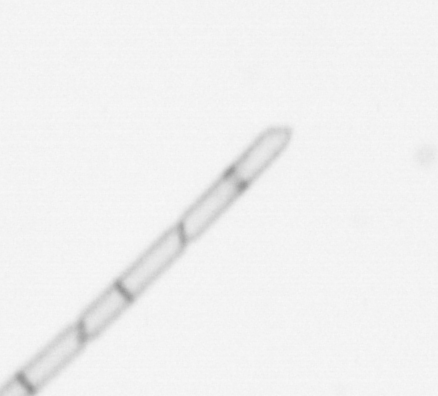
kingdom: Chromista
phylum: Ochrophyta
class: Bacillariophyceae
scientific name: Bacillariophyceae
